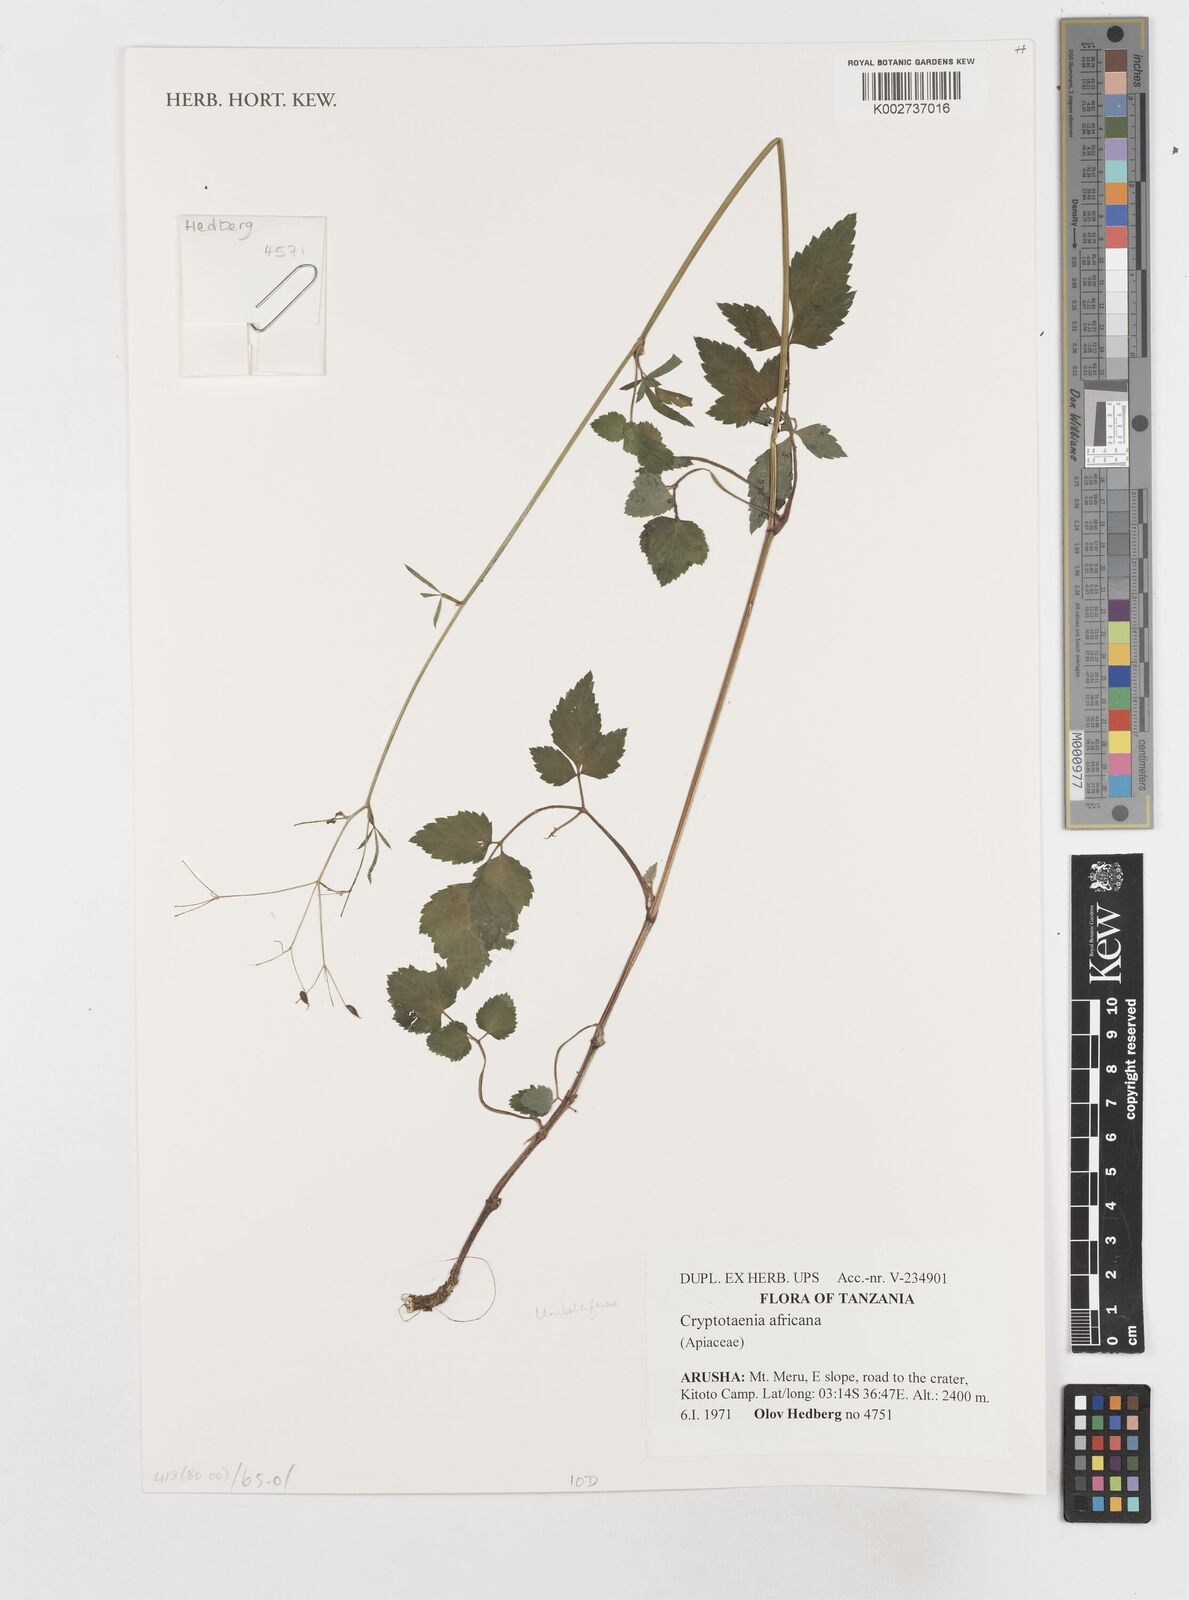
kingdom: Plantae
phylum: Tracheophyta
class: Magnoliopsida
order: Apiales
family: Apiaceae
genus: Cryptotaenia
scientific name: Cryptotaenia africana
